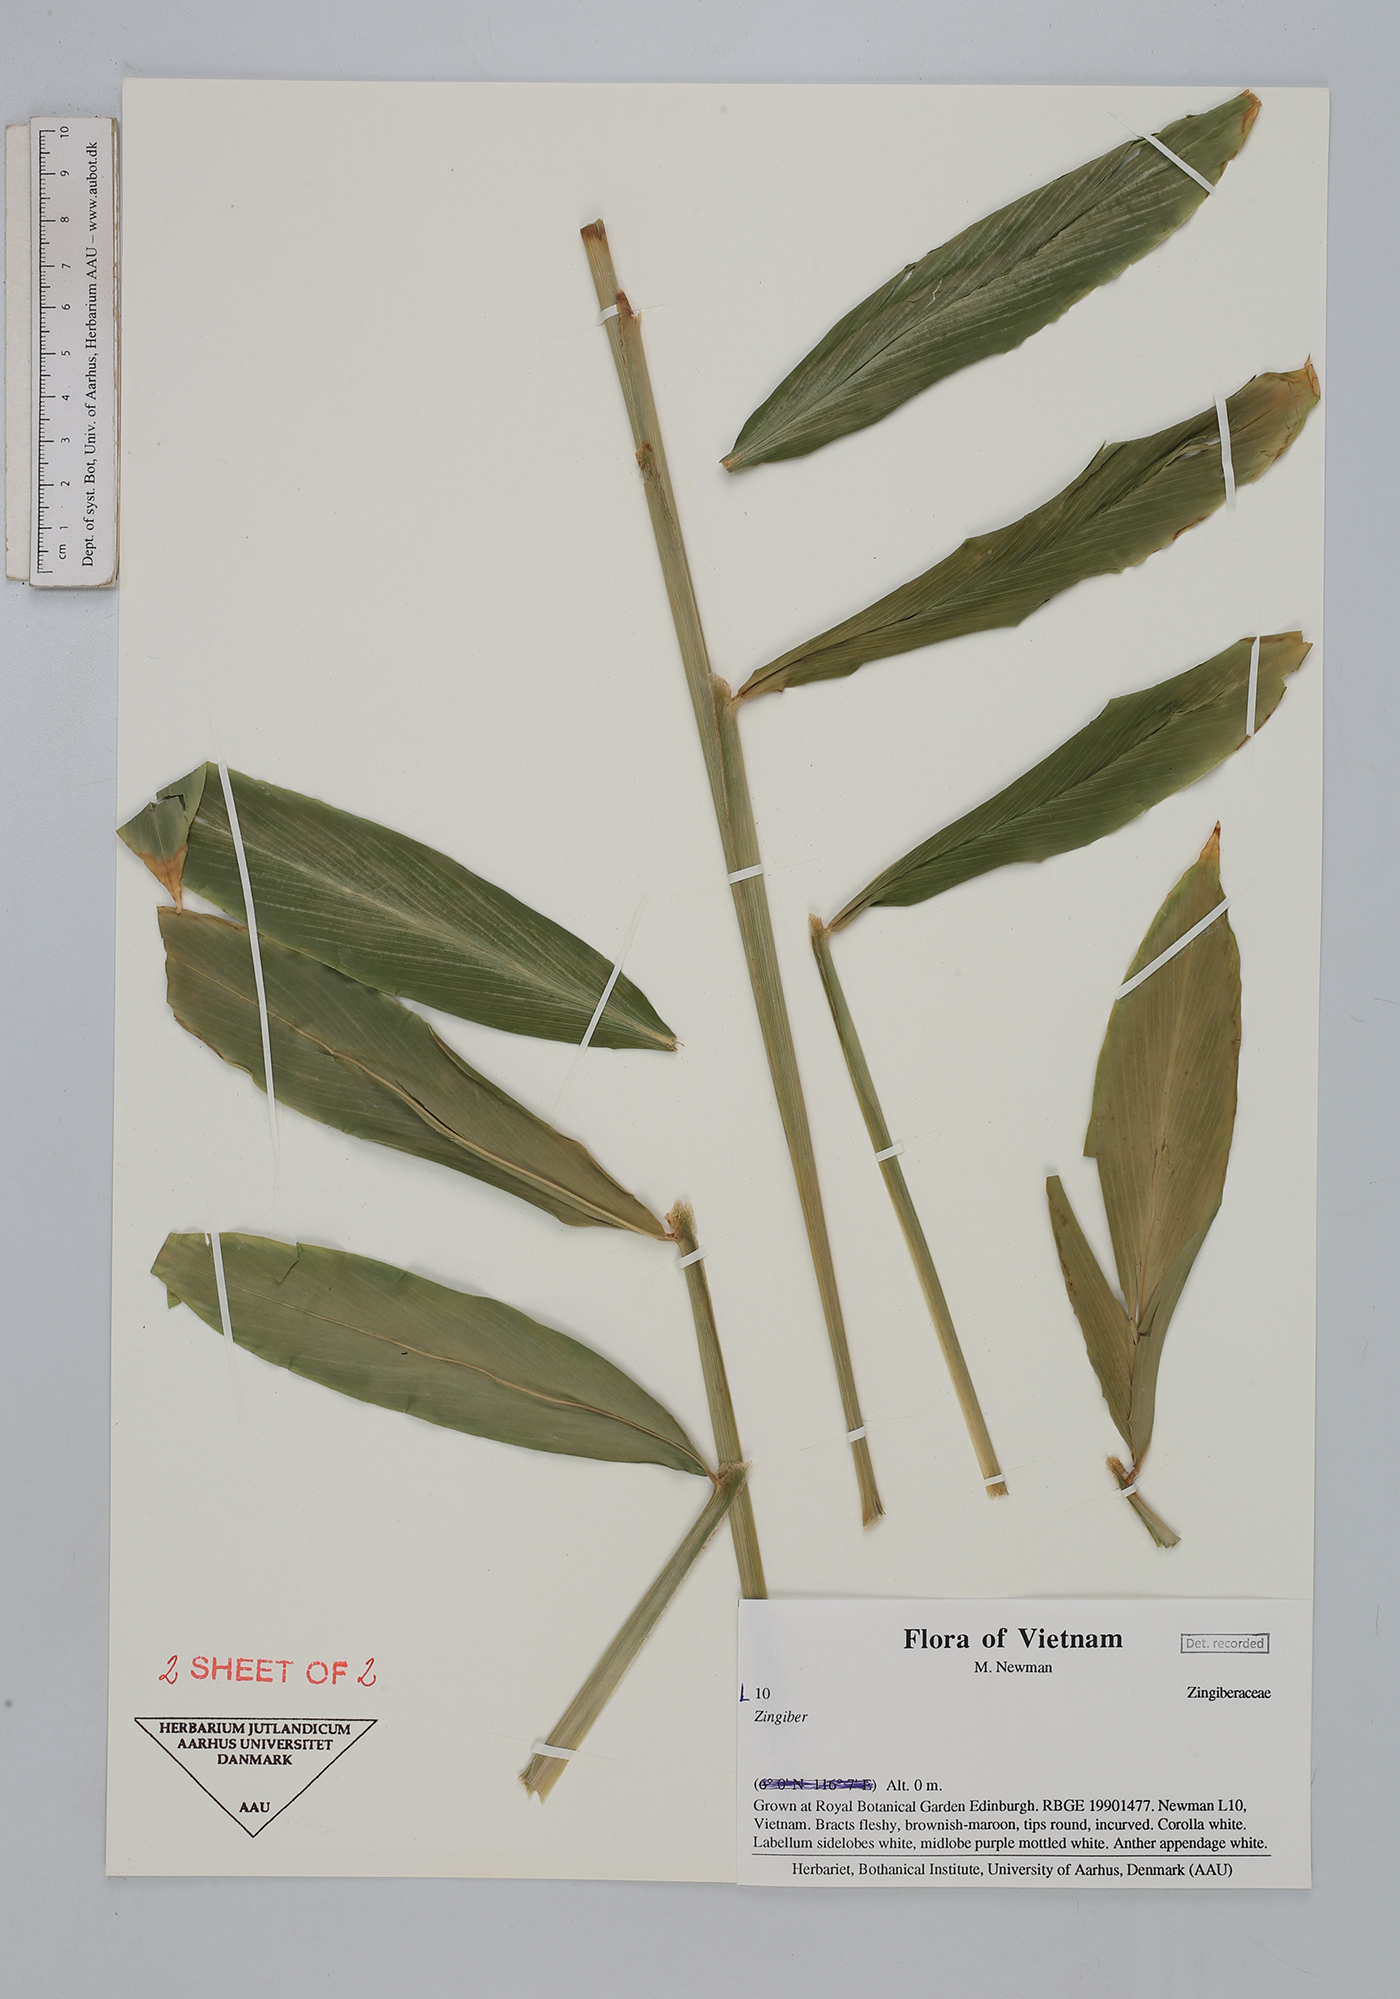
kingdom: Plantae
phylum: Tracheophyta
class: Liliopsida
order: Zingiberales
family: Zingiberaceae
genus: Zingiber
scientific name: Zingiber
